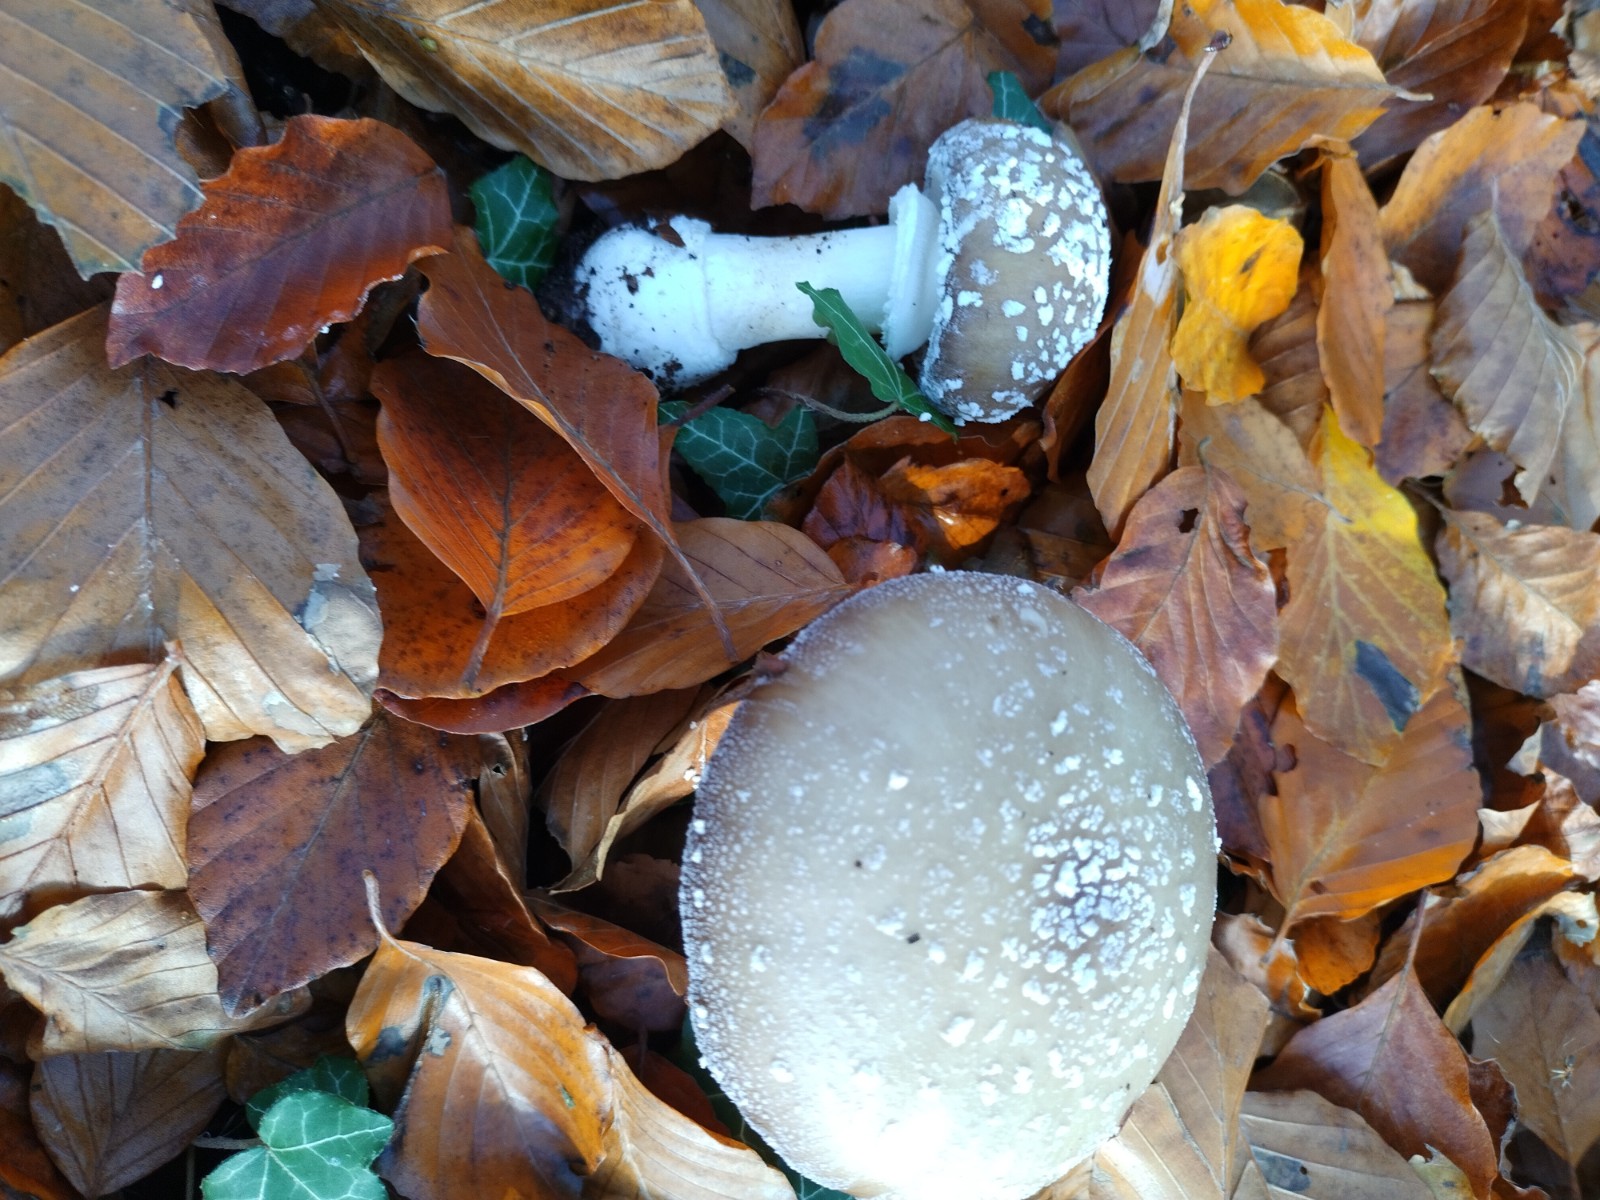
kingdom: Fungi
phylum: Basidiomycota
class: Agaricomycetes
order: Agaricales
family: Amanitaceae
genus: Amanita
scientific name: Amanita pantherina
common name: panter-fluesvamp
